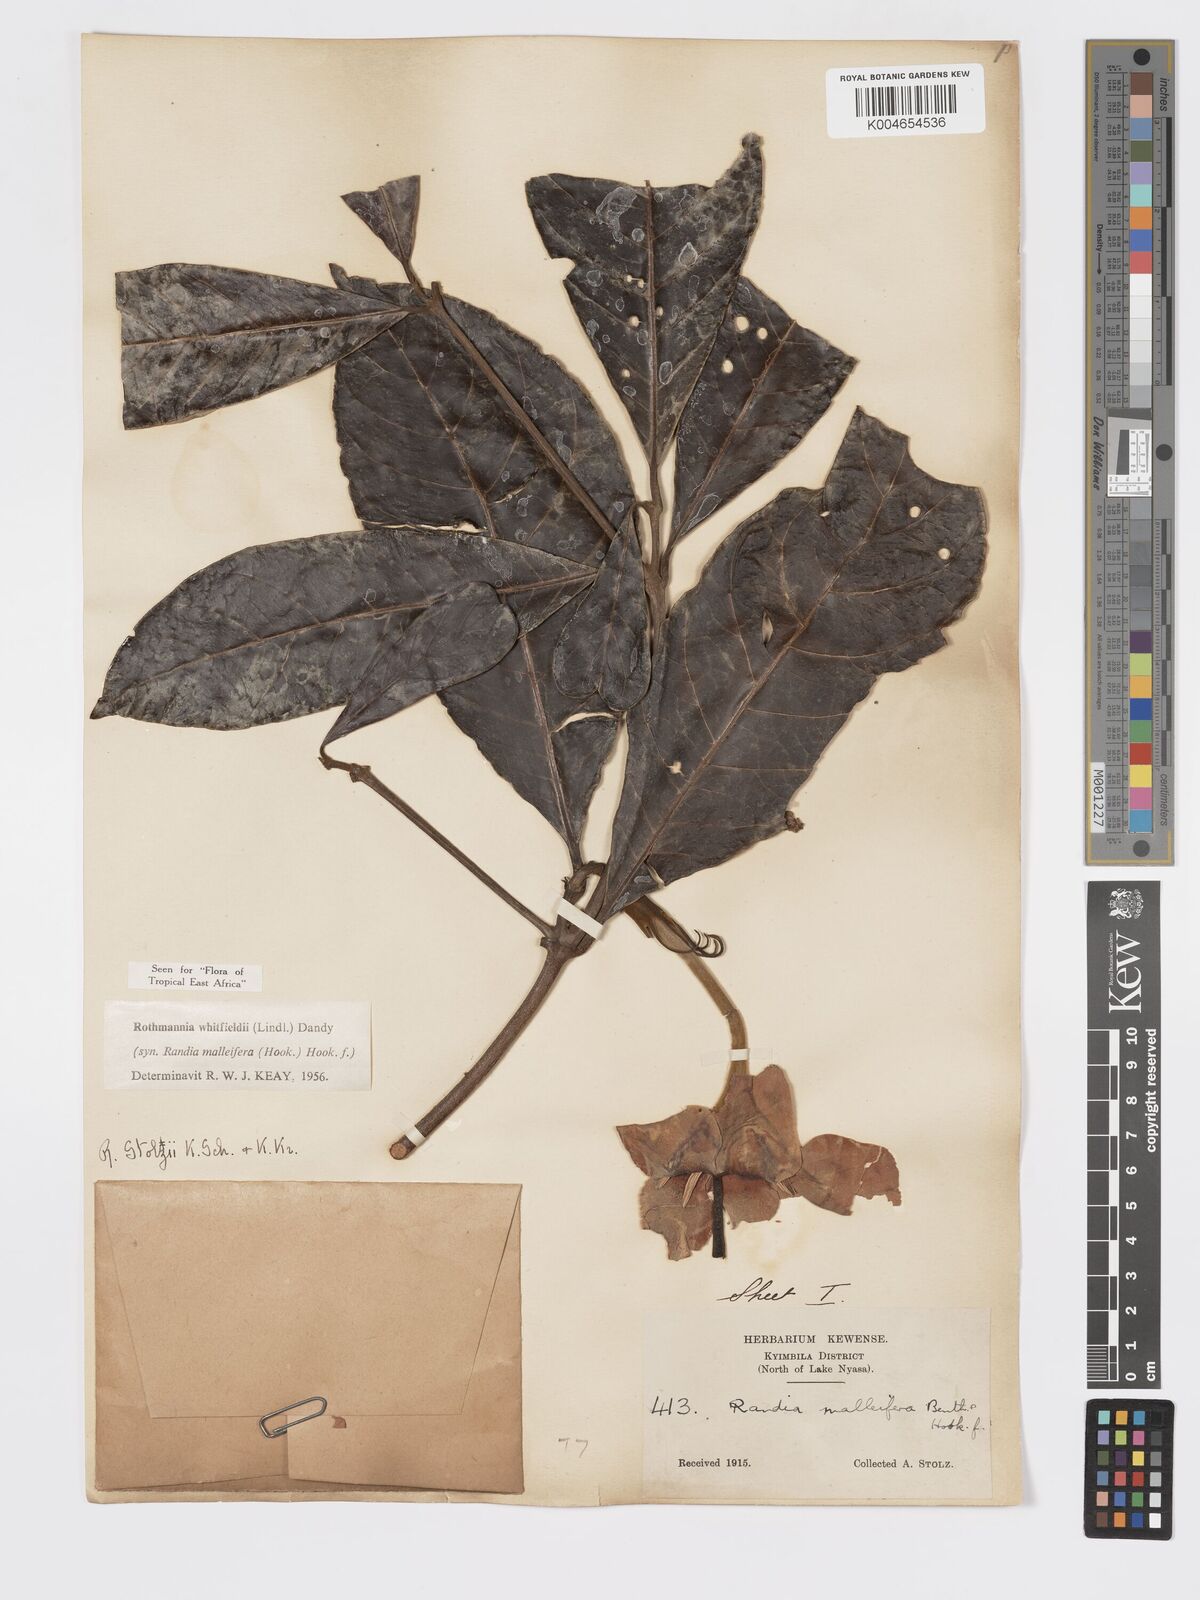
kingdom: Plantae
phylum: Tracheophyta
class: Magnoliopsida
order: Gentianales
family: Rubiaceae
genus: Rothmannia
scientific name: Rothmannia whitfieldii
